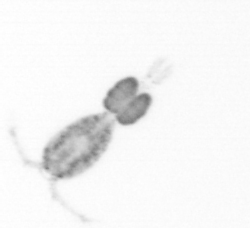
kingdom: Animalia
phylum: Arthropoda
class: Copepoda
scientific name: Copepoda
